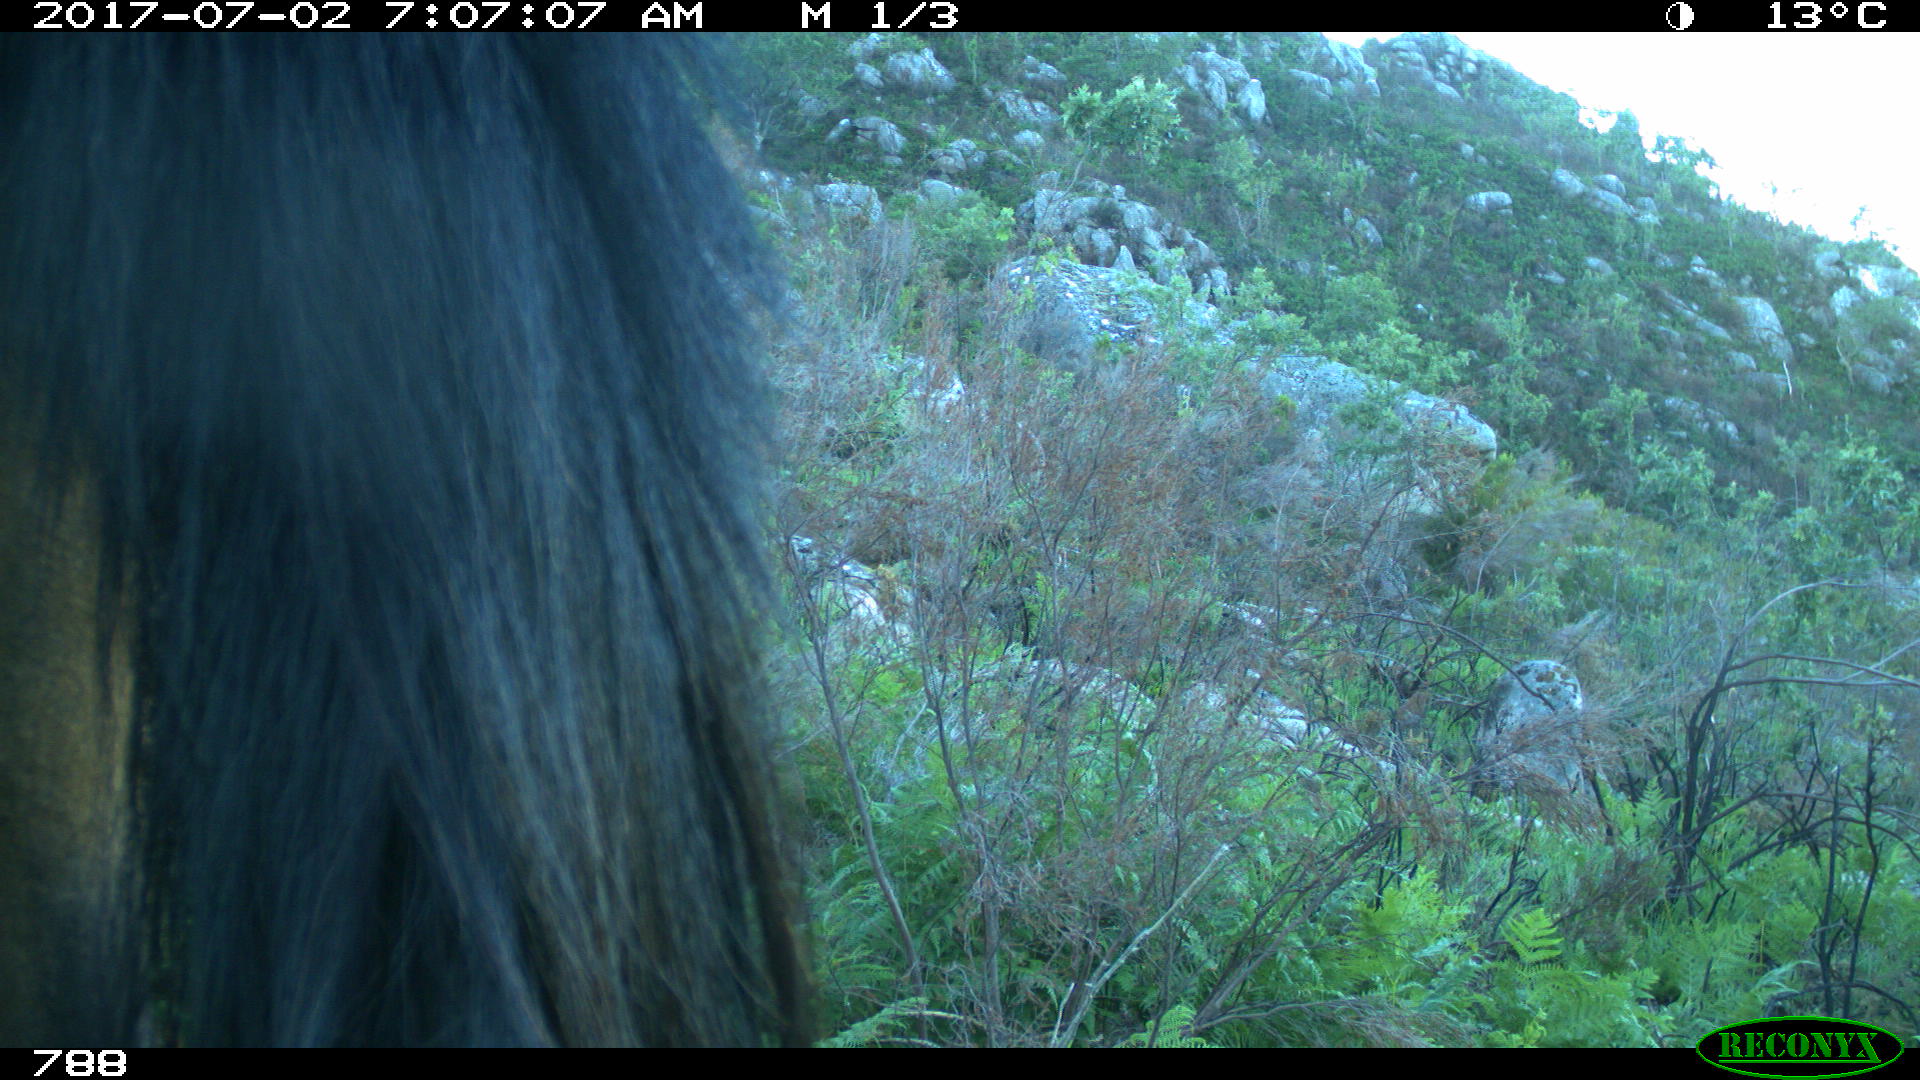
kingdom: Animalia
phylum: Chordata
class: Mammalia
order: Perissodactyla
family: Equidae
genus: Equus
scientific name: Equus caballus
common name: Horse
